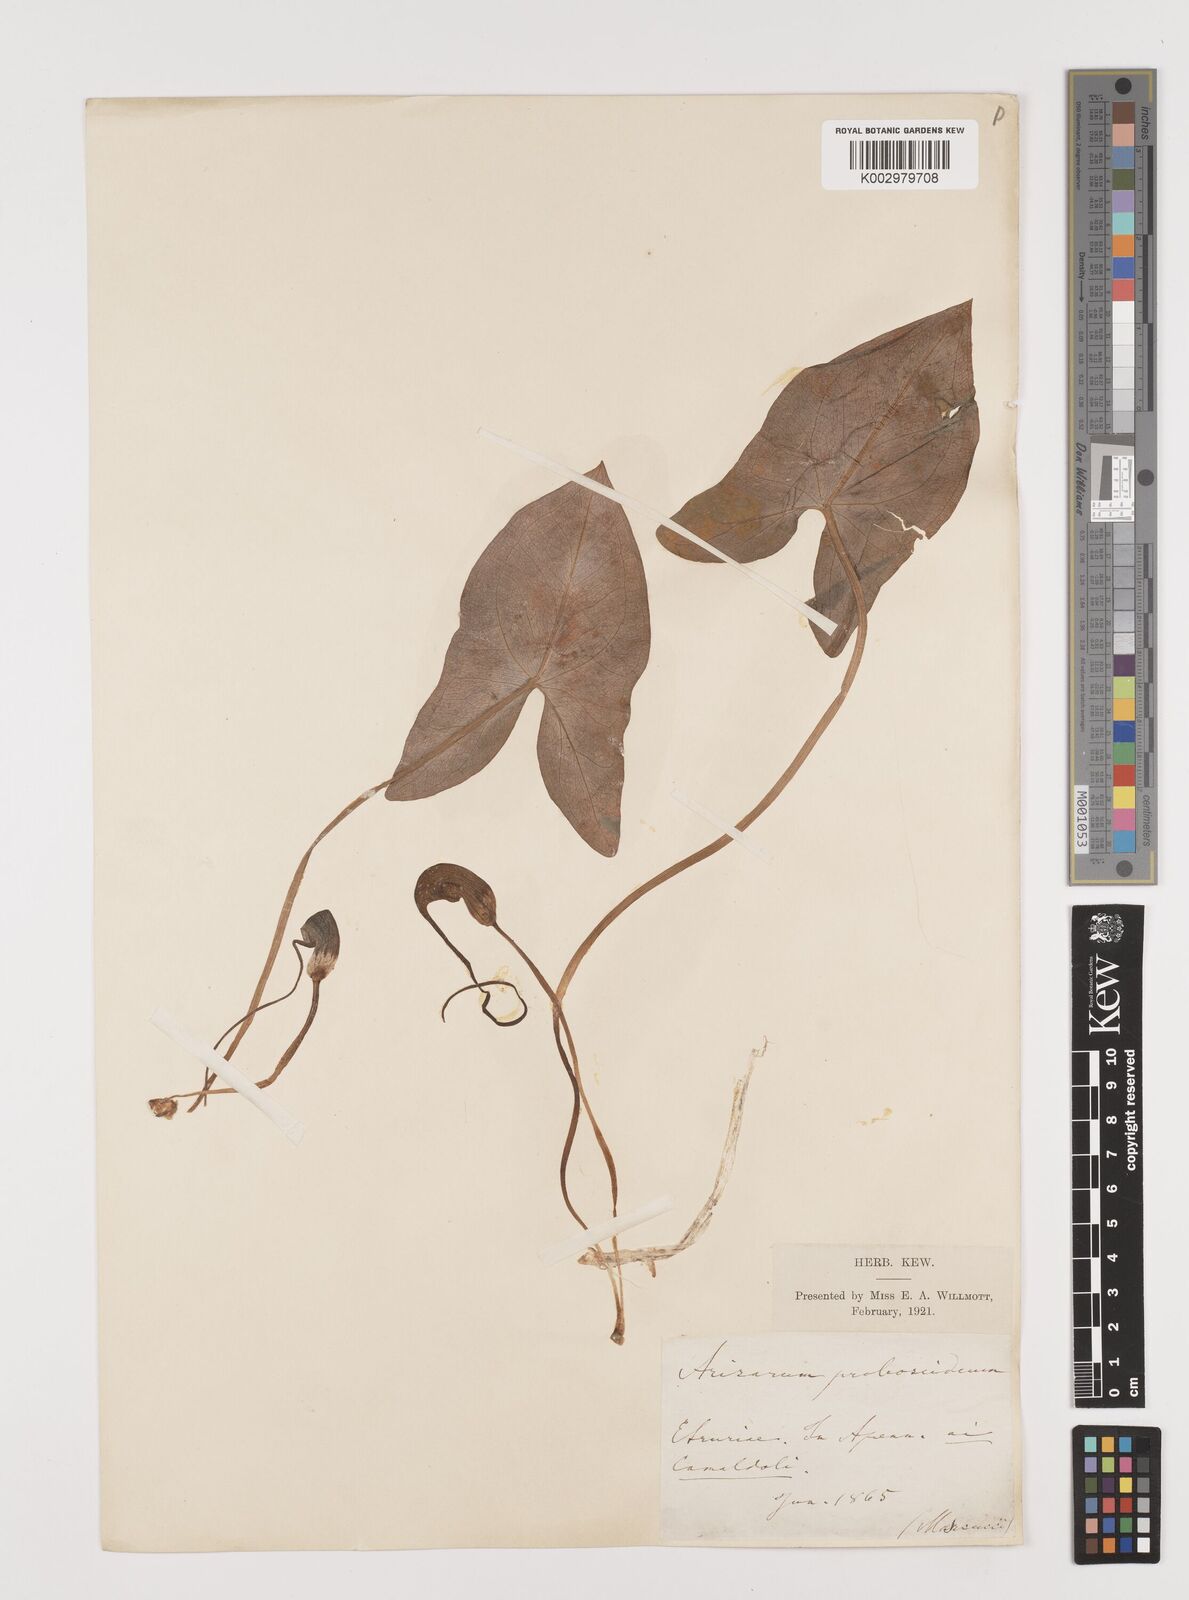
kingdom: Plantae
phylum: Tracheophyta
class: Liliopsida
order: Alismatales
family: Araceae
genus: Arisarum
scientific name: Arisarum proboscideum
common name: Mousetailplant
